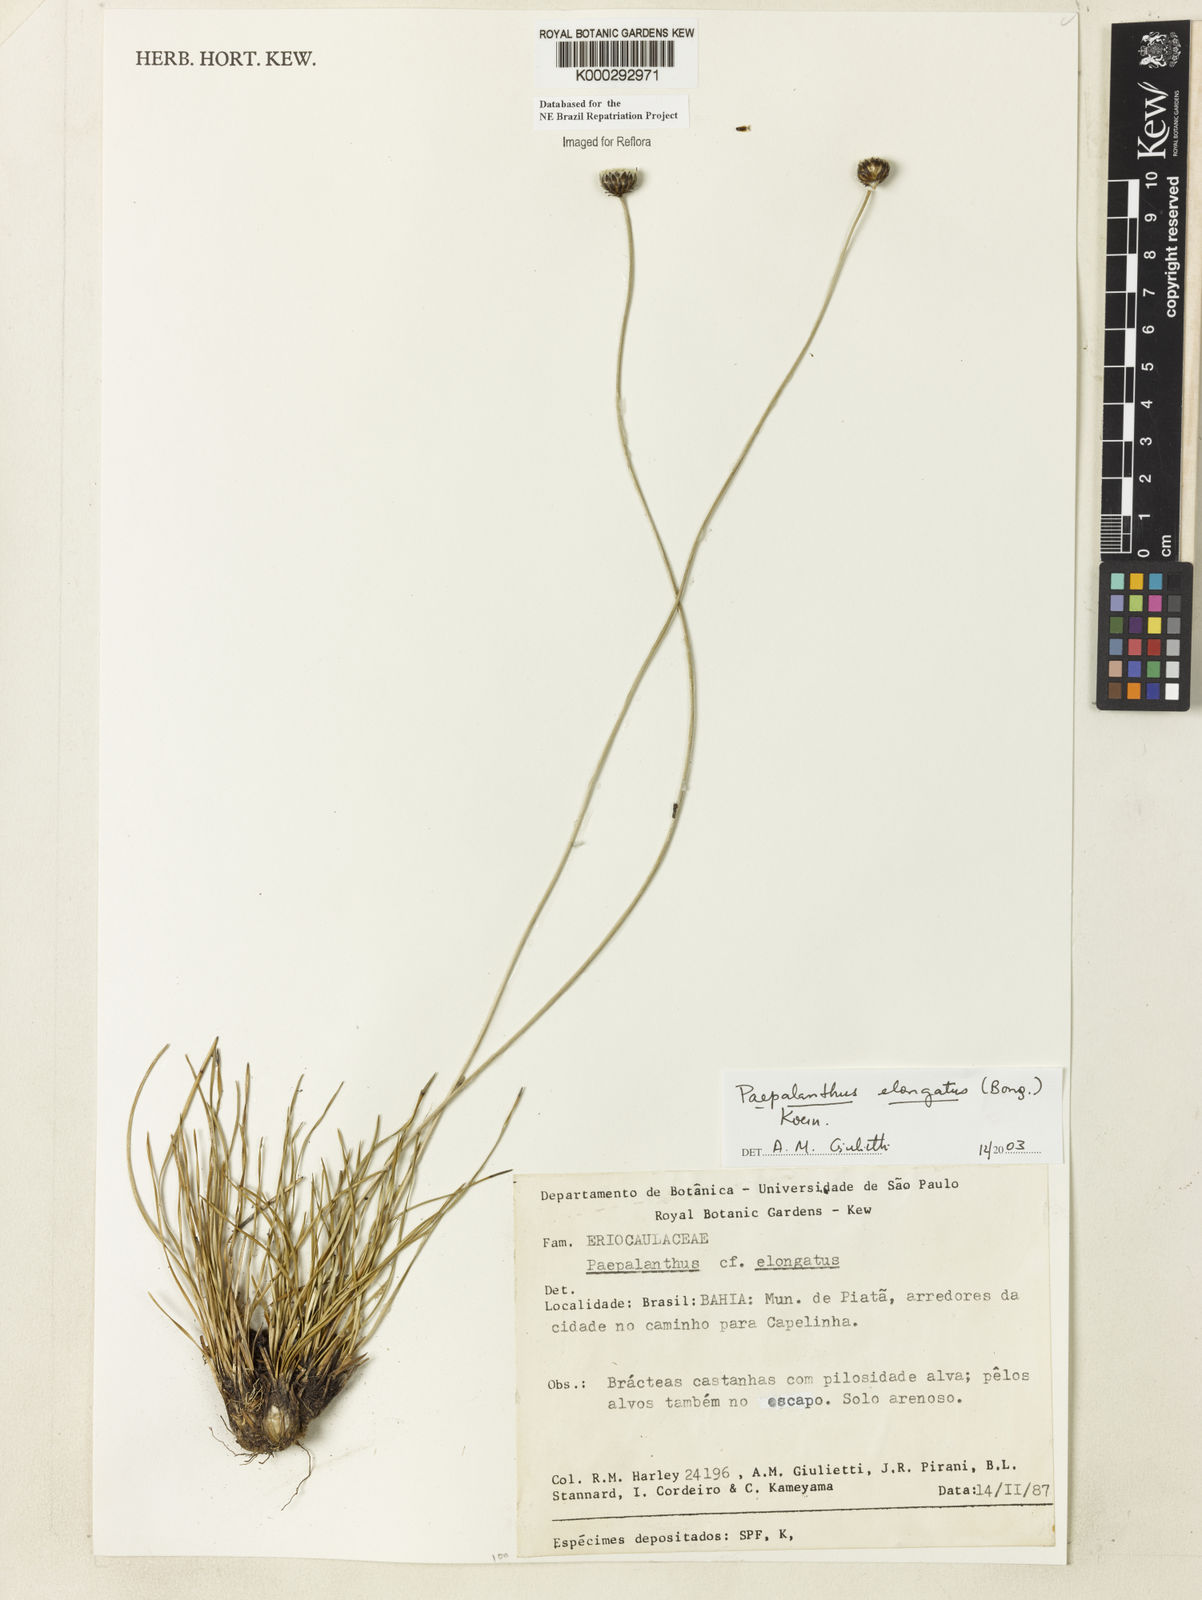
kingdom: Plantae
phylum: Tracheophyta
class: Liliopsida
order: Poales
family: Eriocaulaceae
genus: Paepalanthus
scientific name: Paepalanthus
